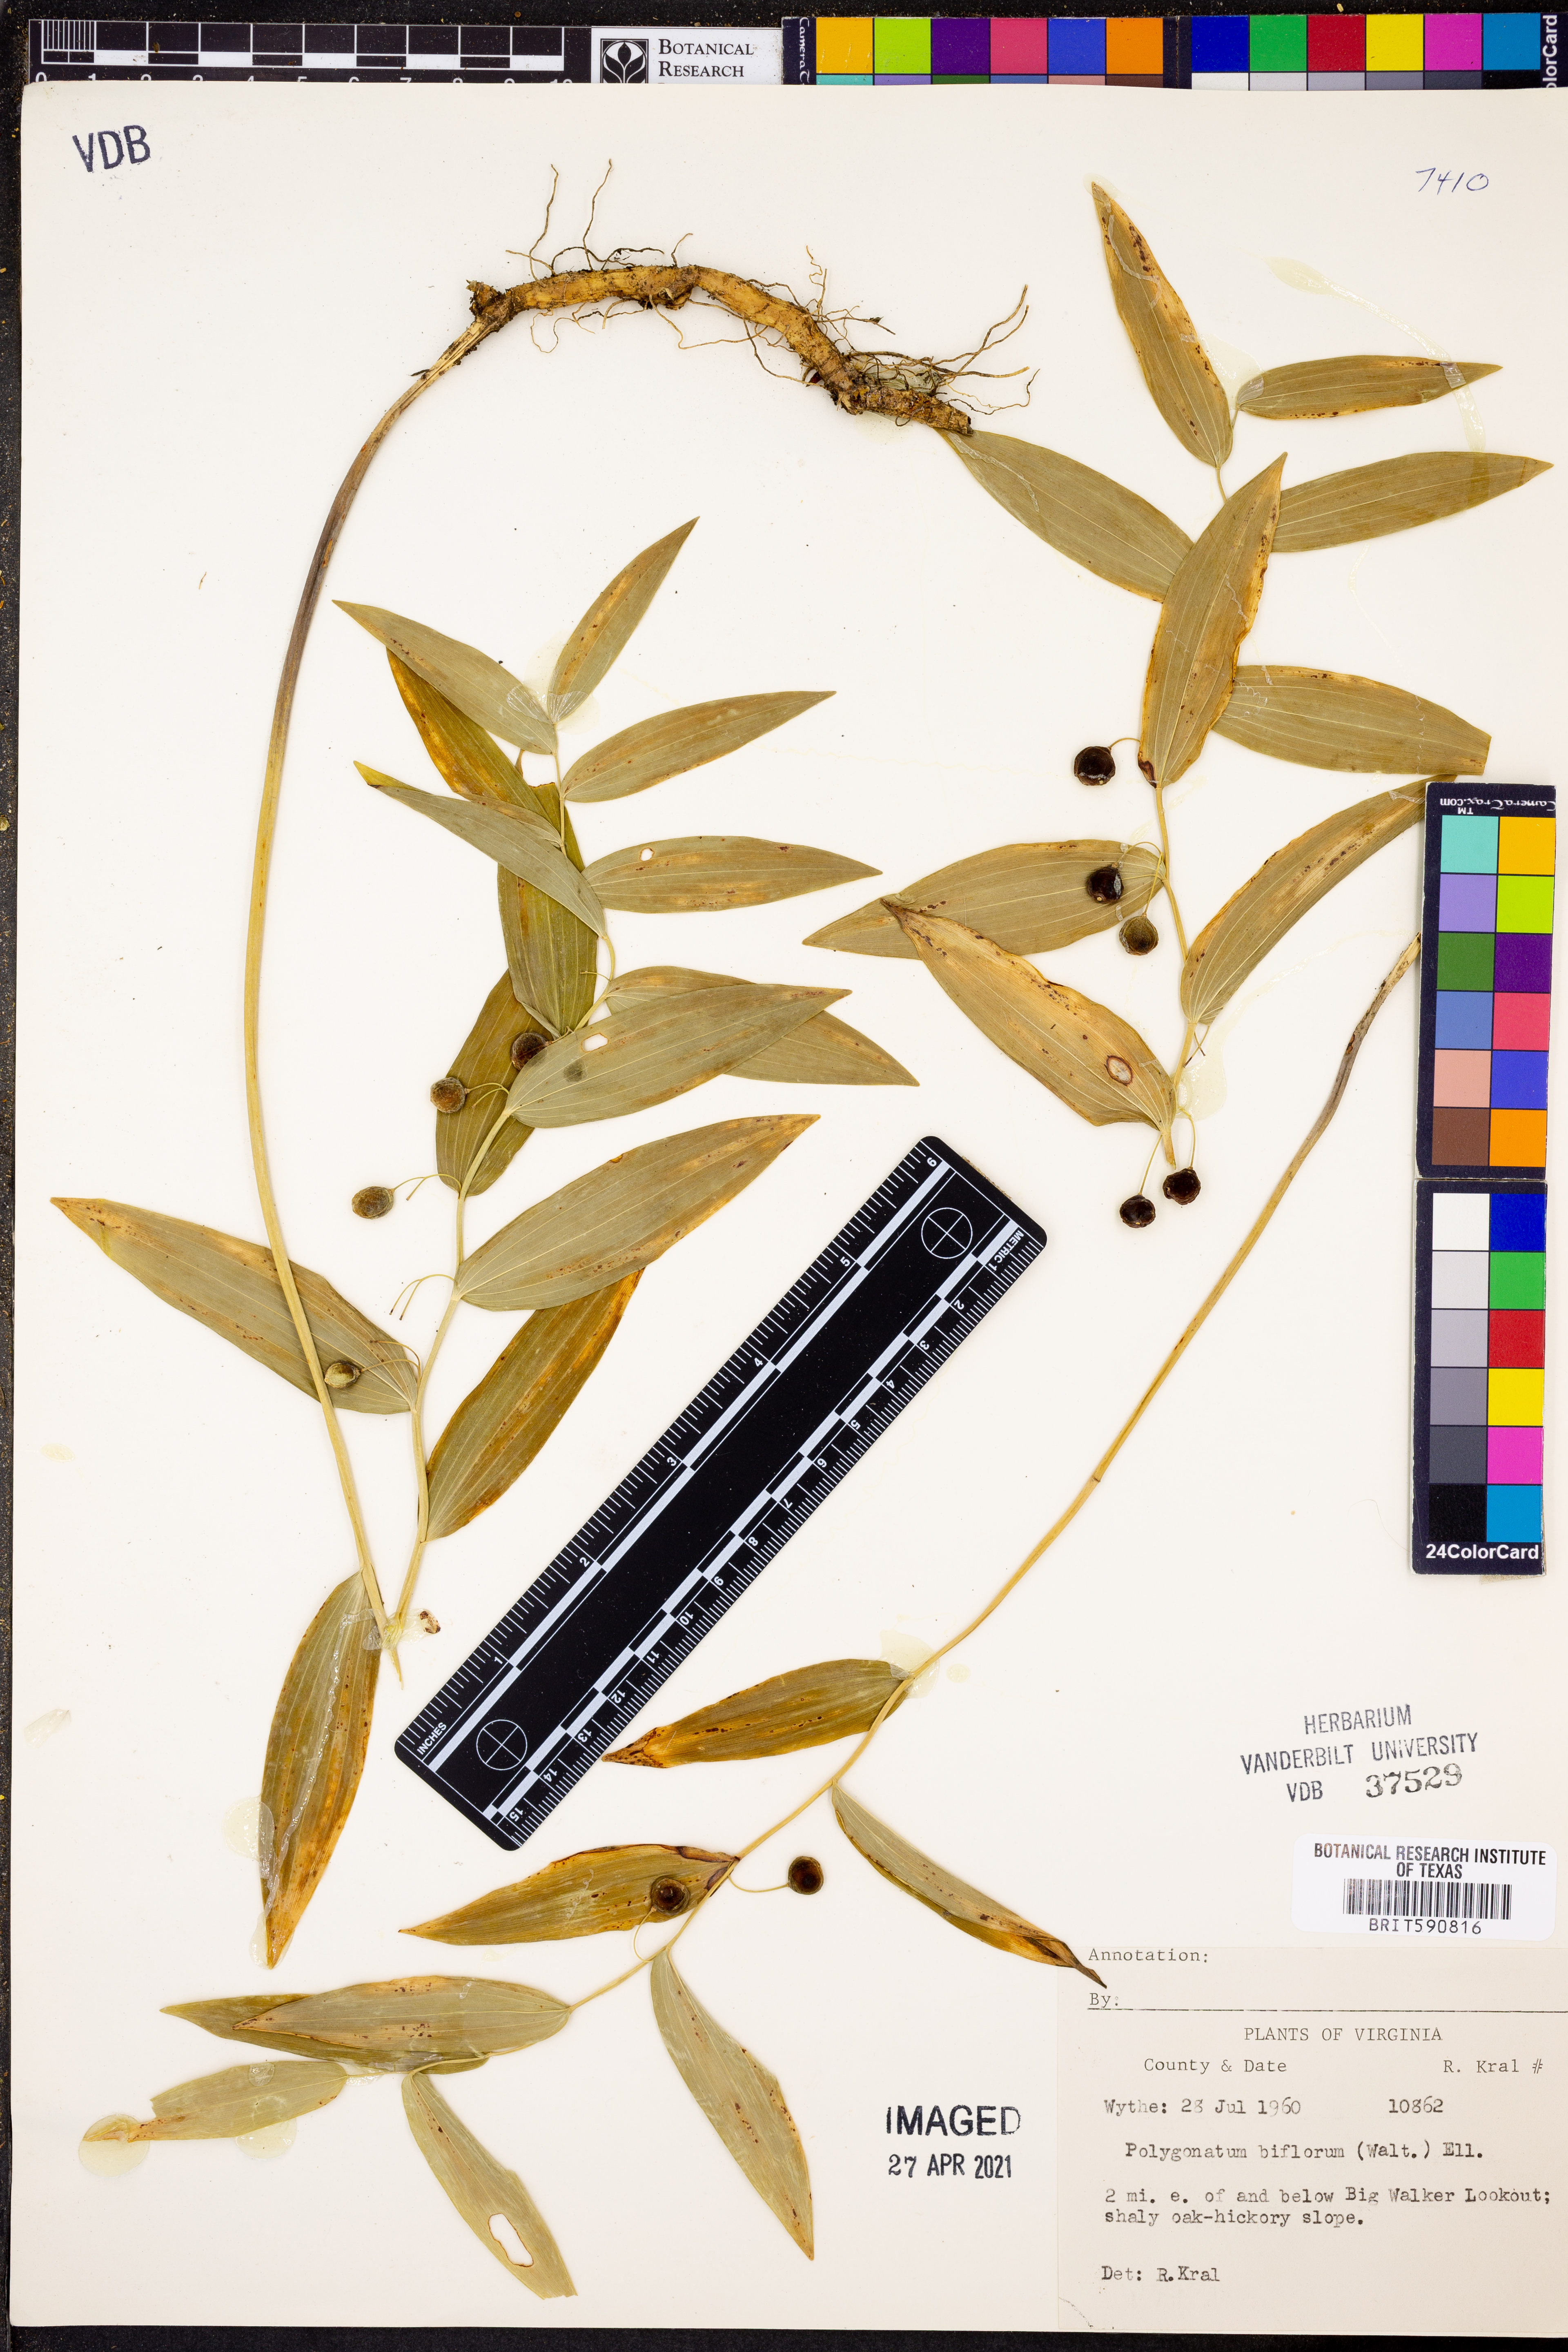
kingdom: Plantae
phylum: Tracheophyta
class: Liliopsida
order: Asparagales
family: Asparagaceae
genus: Polygonatum
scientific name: Polygonatum biflorum
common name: American solomon's-seal
